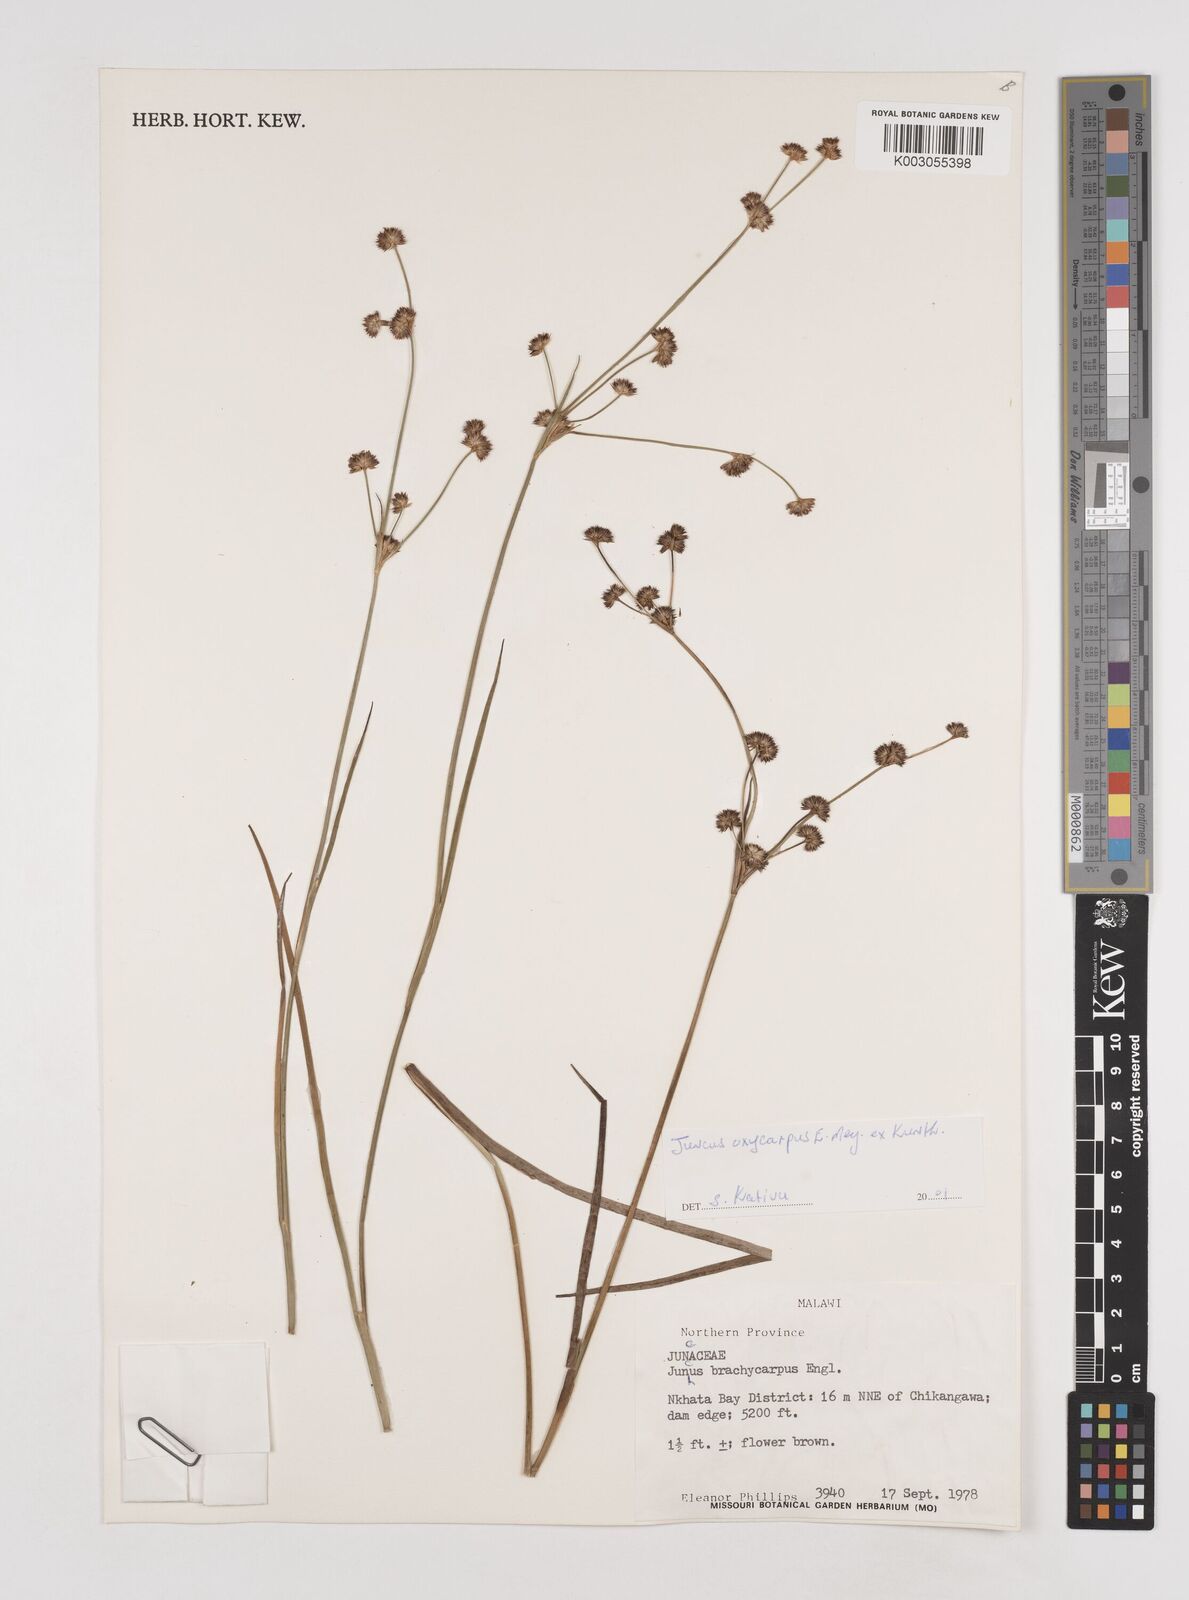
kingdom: Plantae
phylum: Tracheophyta
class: Liliopsida
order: Poales
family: Juncaceae
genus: Juncus
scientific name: Juncus oxycarpus
